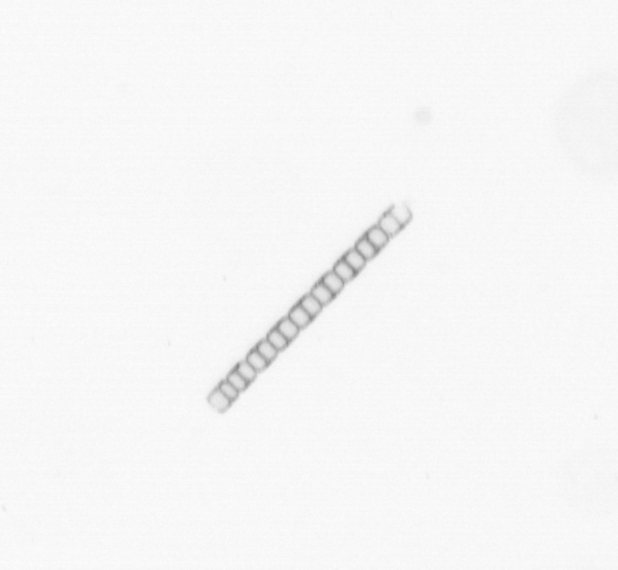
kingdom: Chromista
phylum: Ochrophyta
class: Bacillariophyceae
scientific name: Bacillariophyceae
